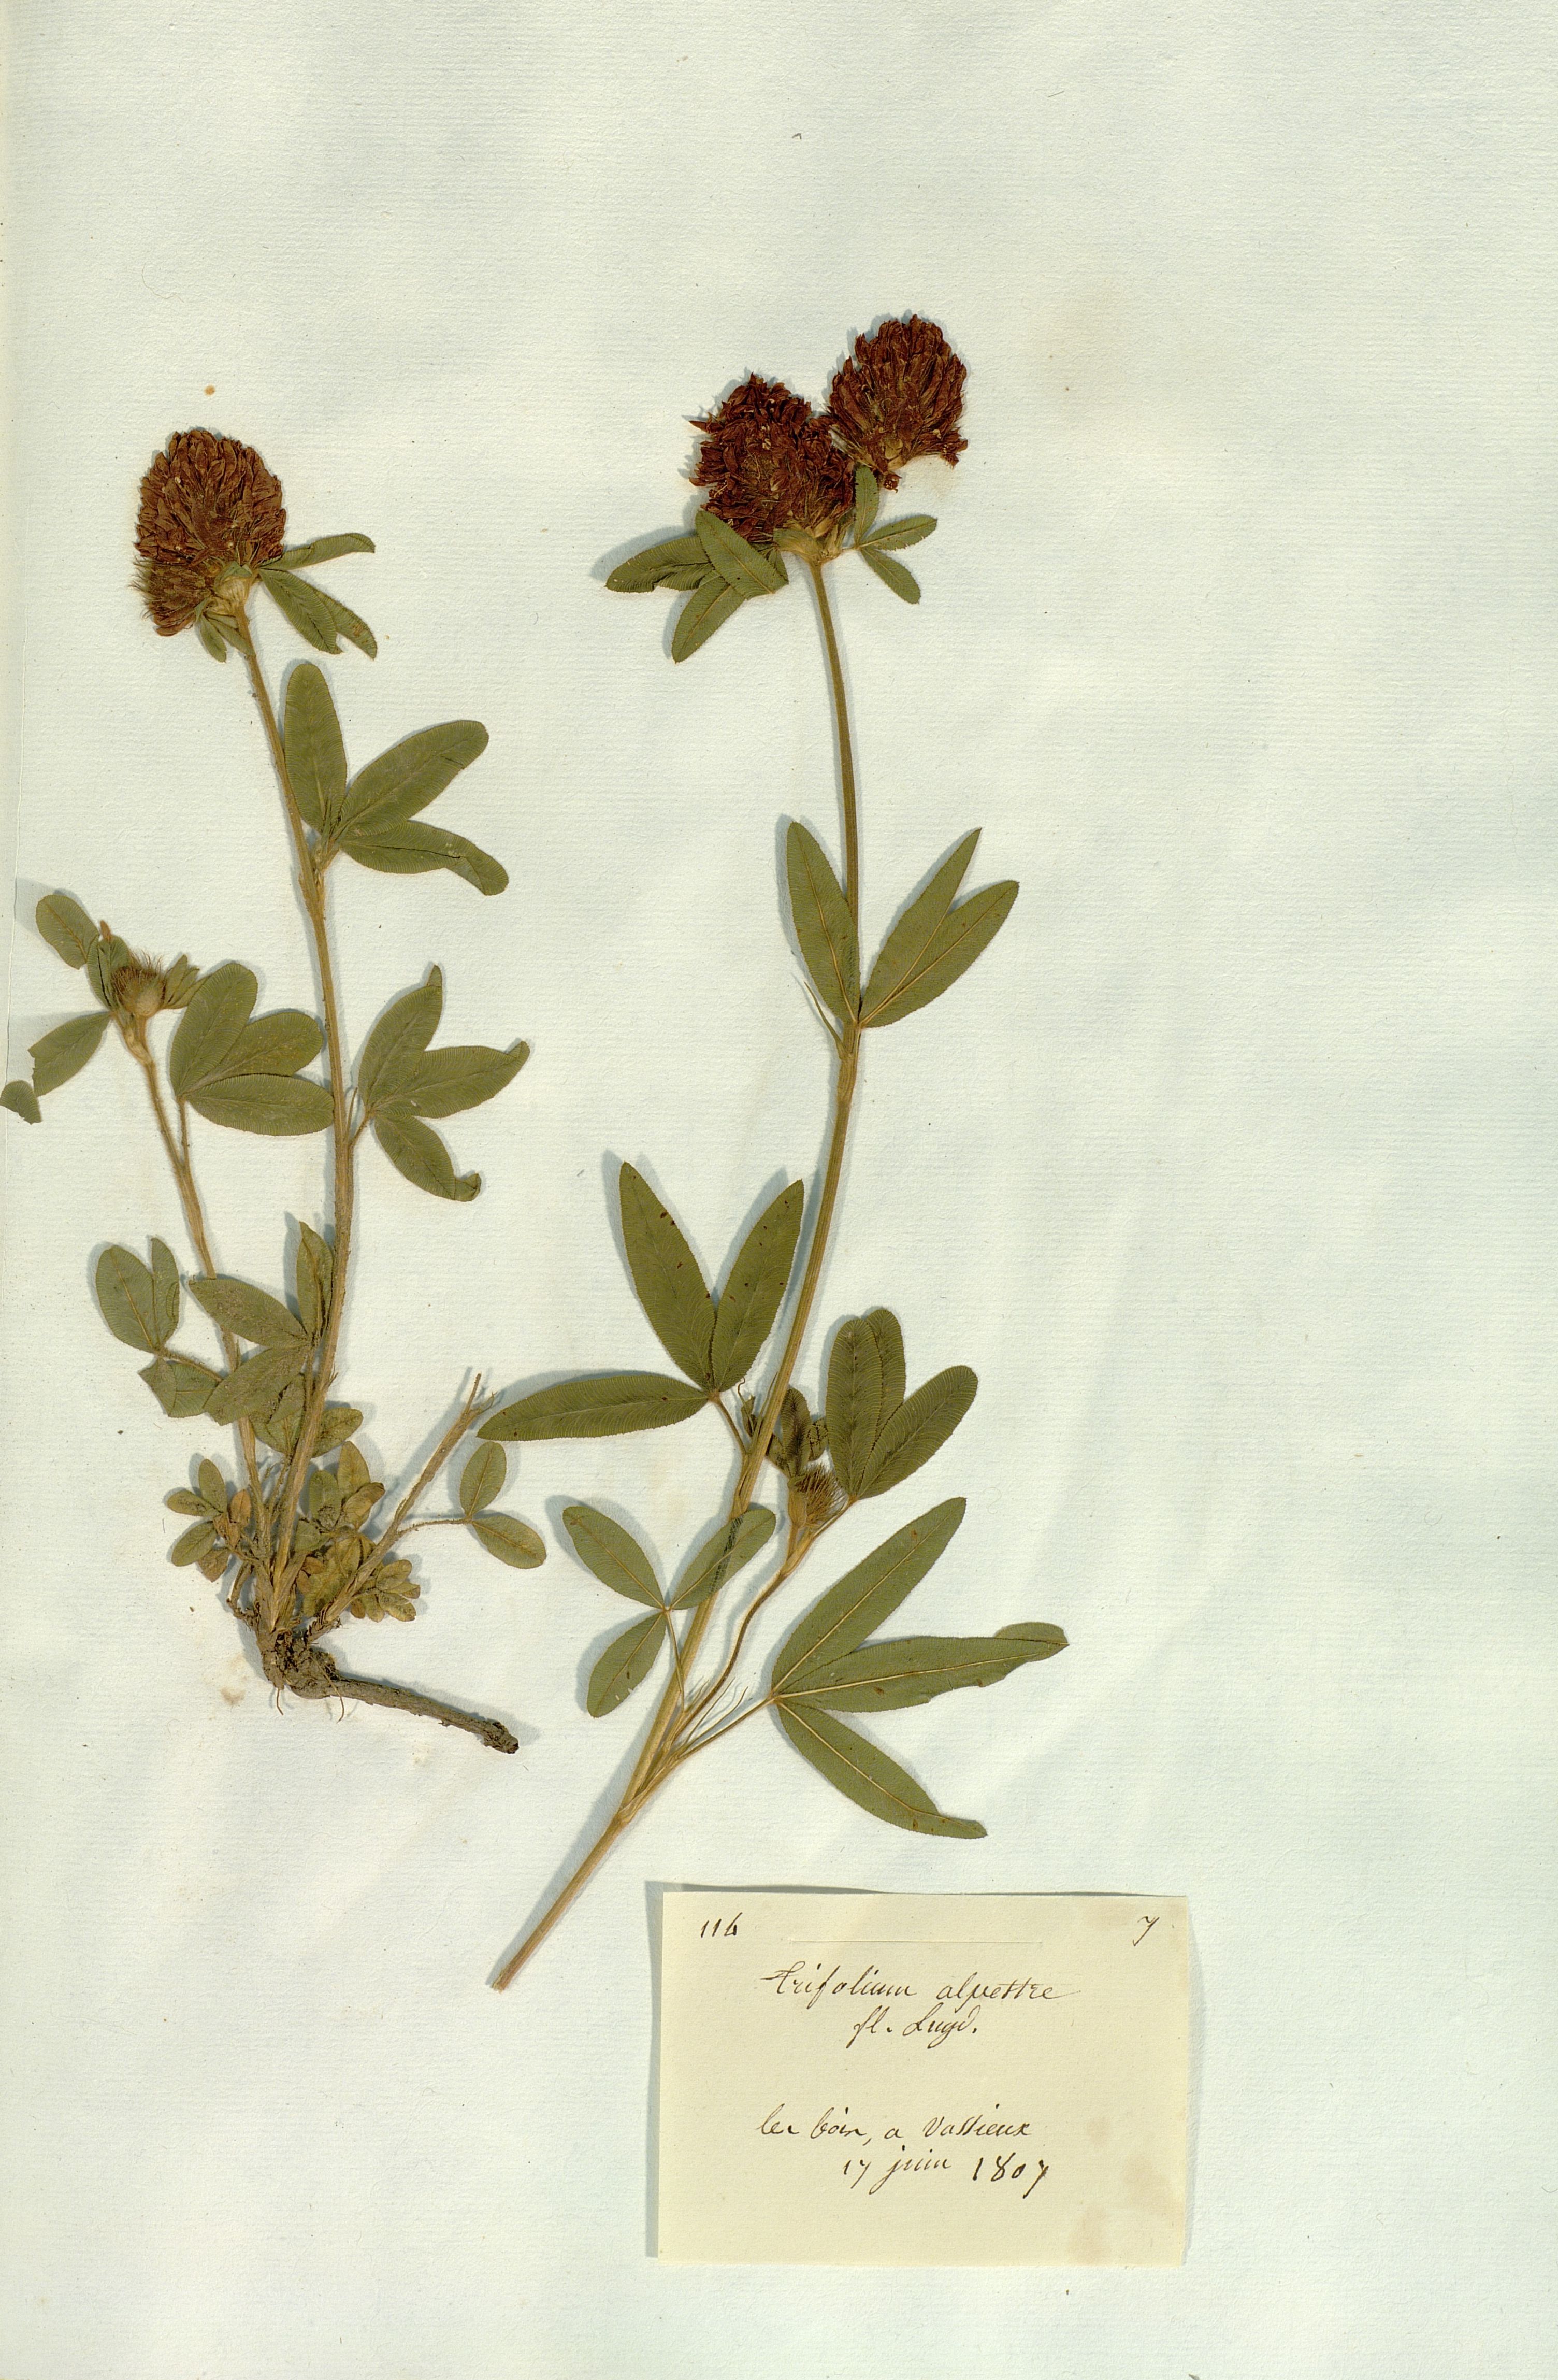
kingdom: Plantae
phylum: Tracheophyta
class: Magnoliopsida
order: Fabales
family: Fabaceae
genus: Trifolium
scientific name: Trifolium alpestre
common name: Owl-head clover
